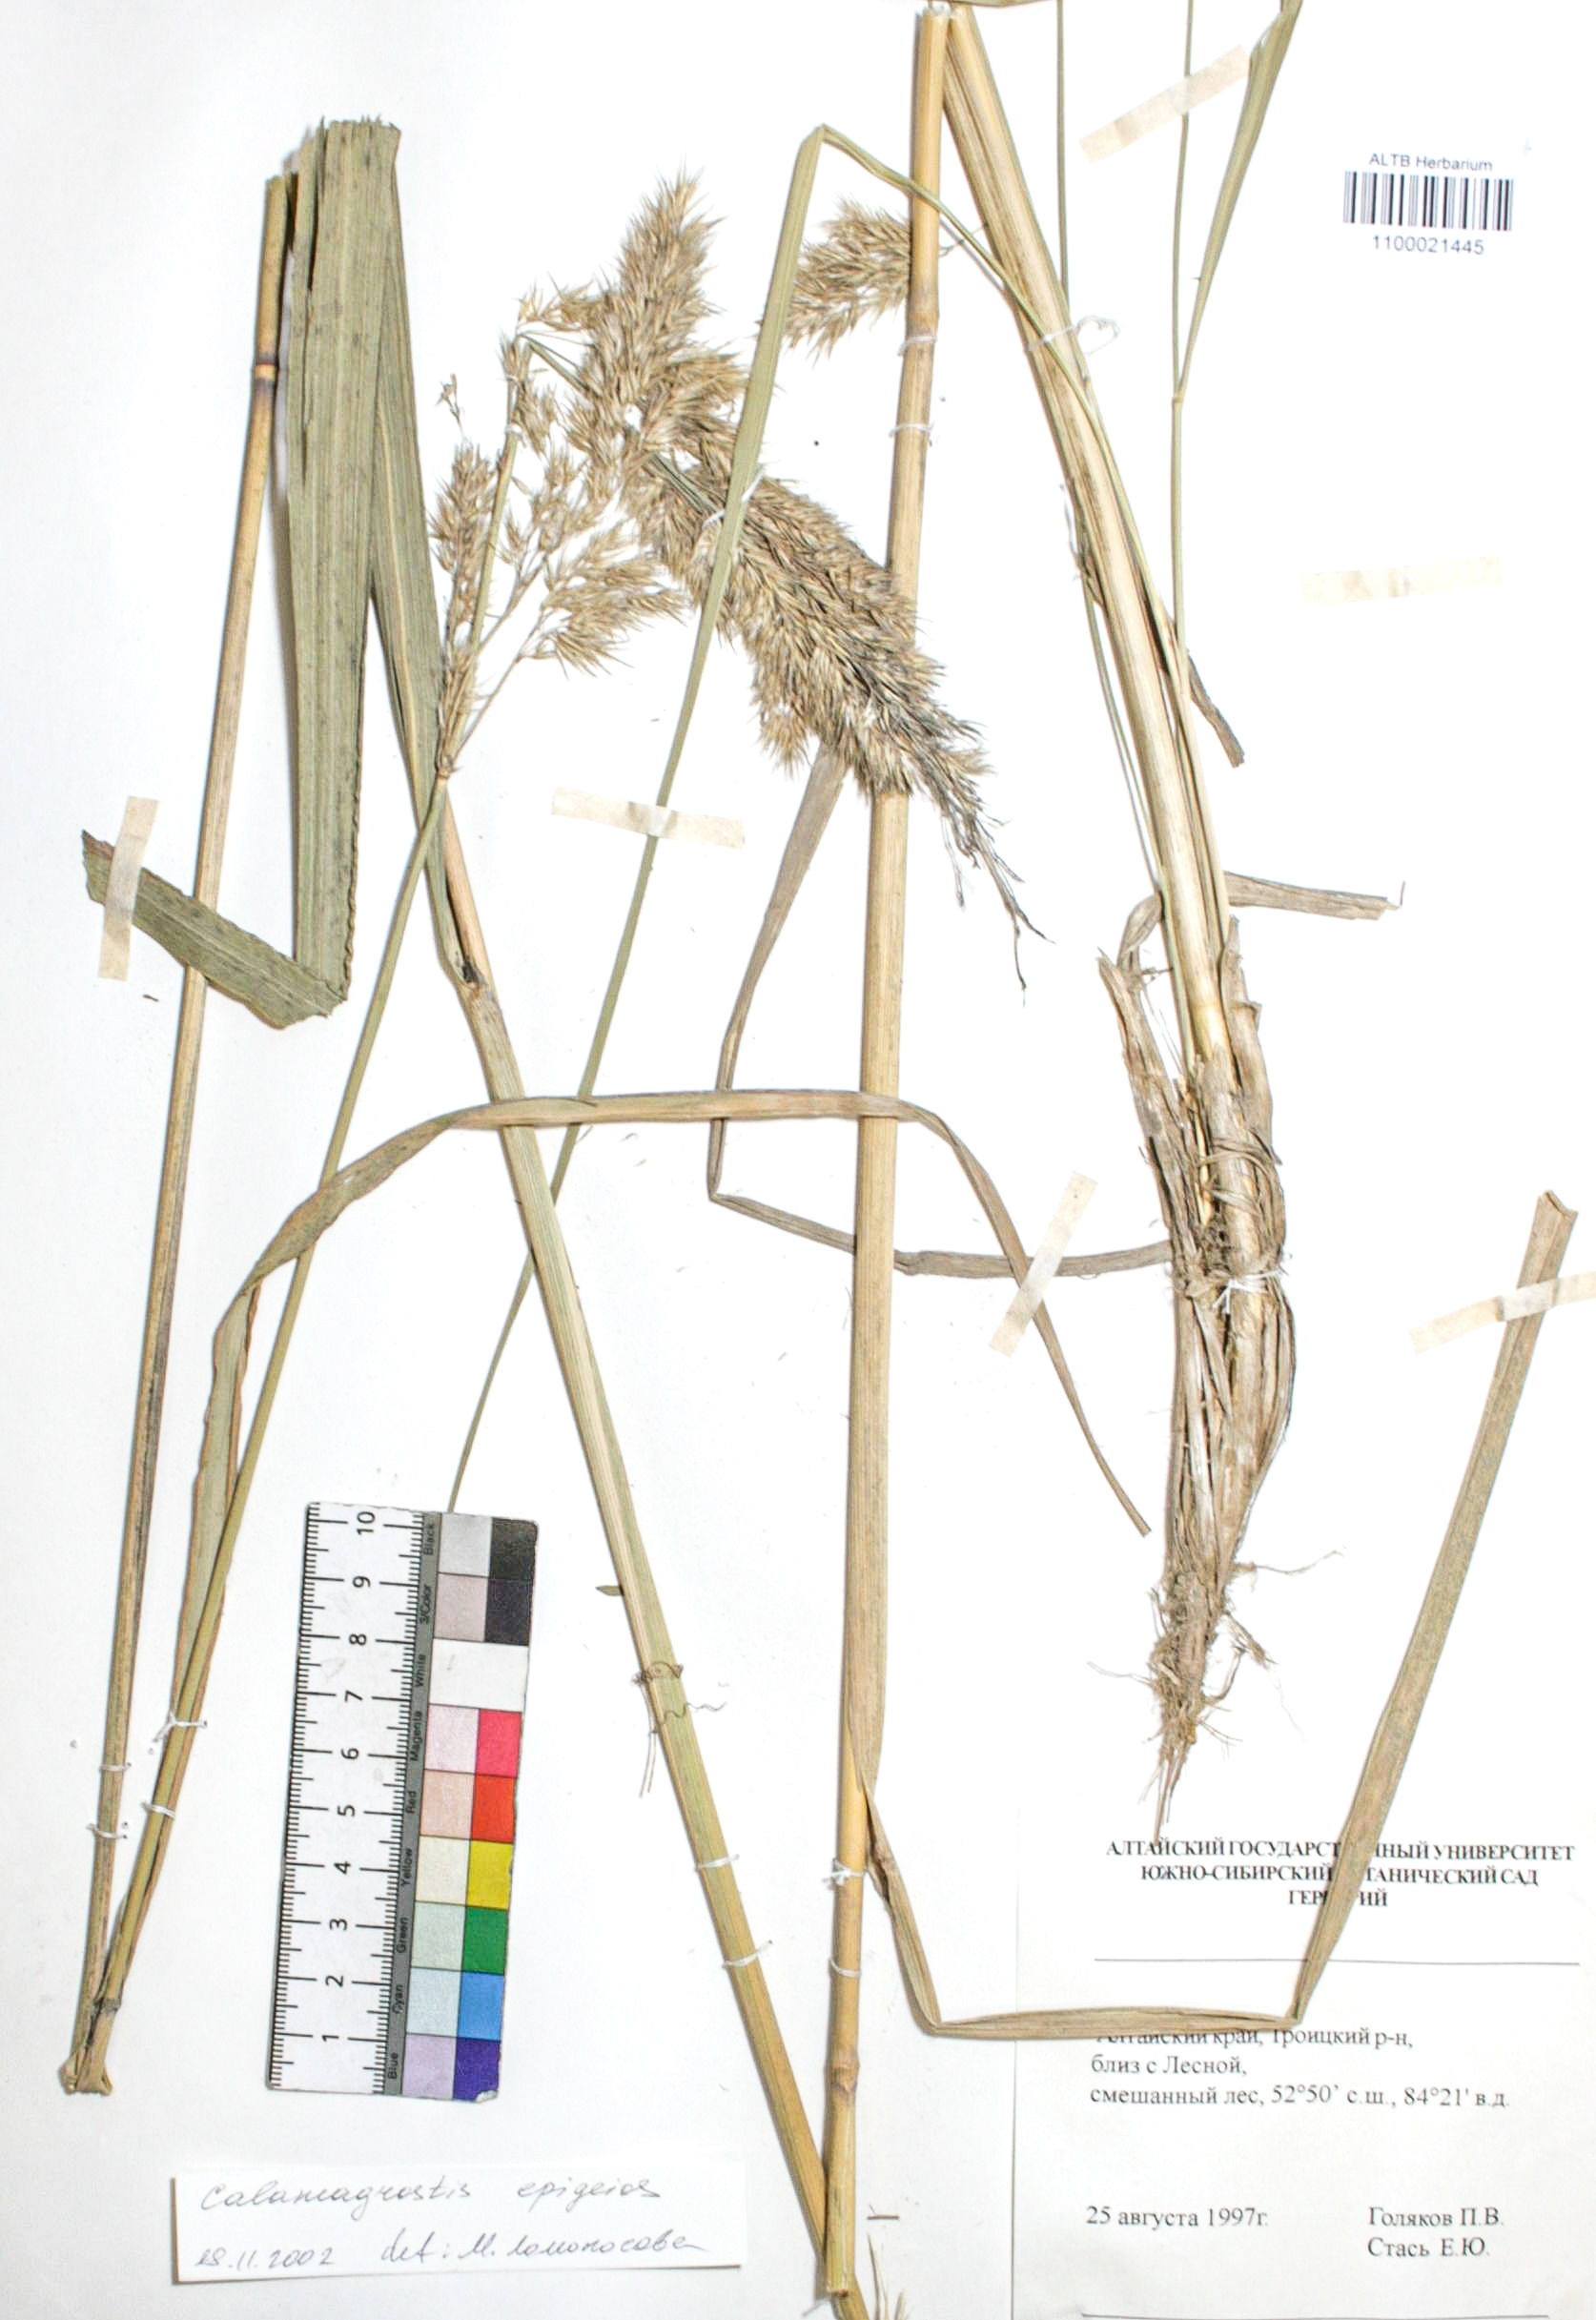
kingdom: Plantae
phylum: Tracheophyta
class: Liliopsida
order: Poales
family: Poaceae
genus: Calamagrostis
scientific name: Calamagrostis macrolepis
